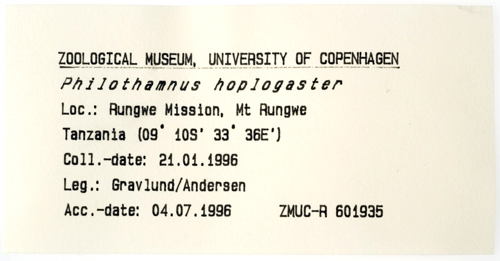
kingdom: Animalia
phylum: Chordata
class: Squamata
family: Colubridae
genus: Philothamnus
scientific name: Philothamnus hoplogaster
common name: Green water snake
